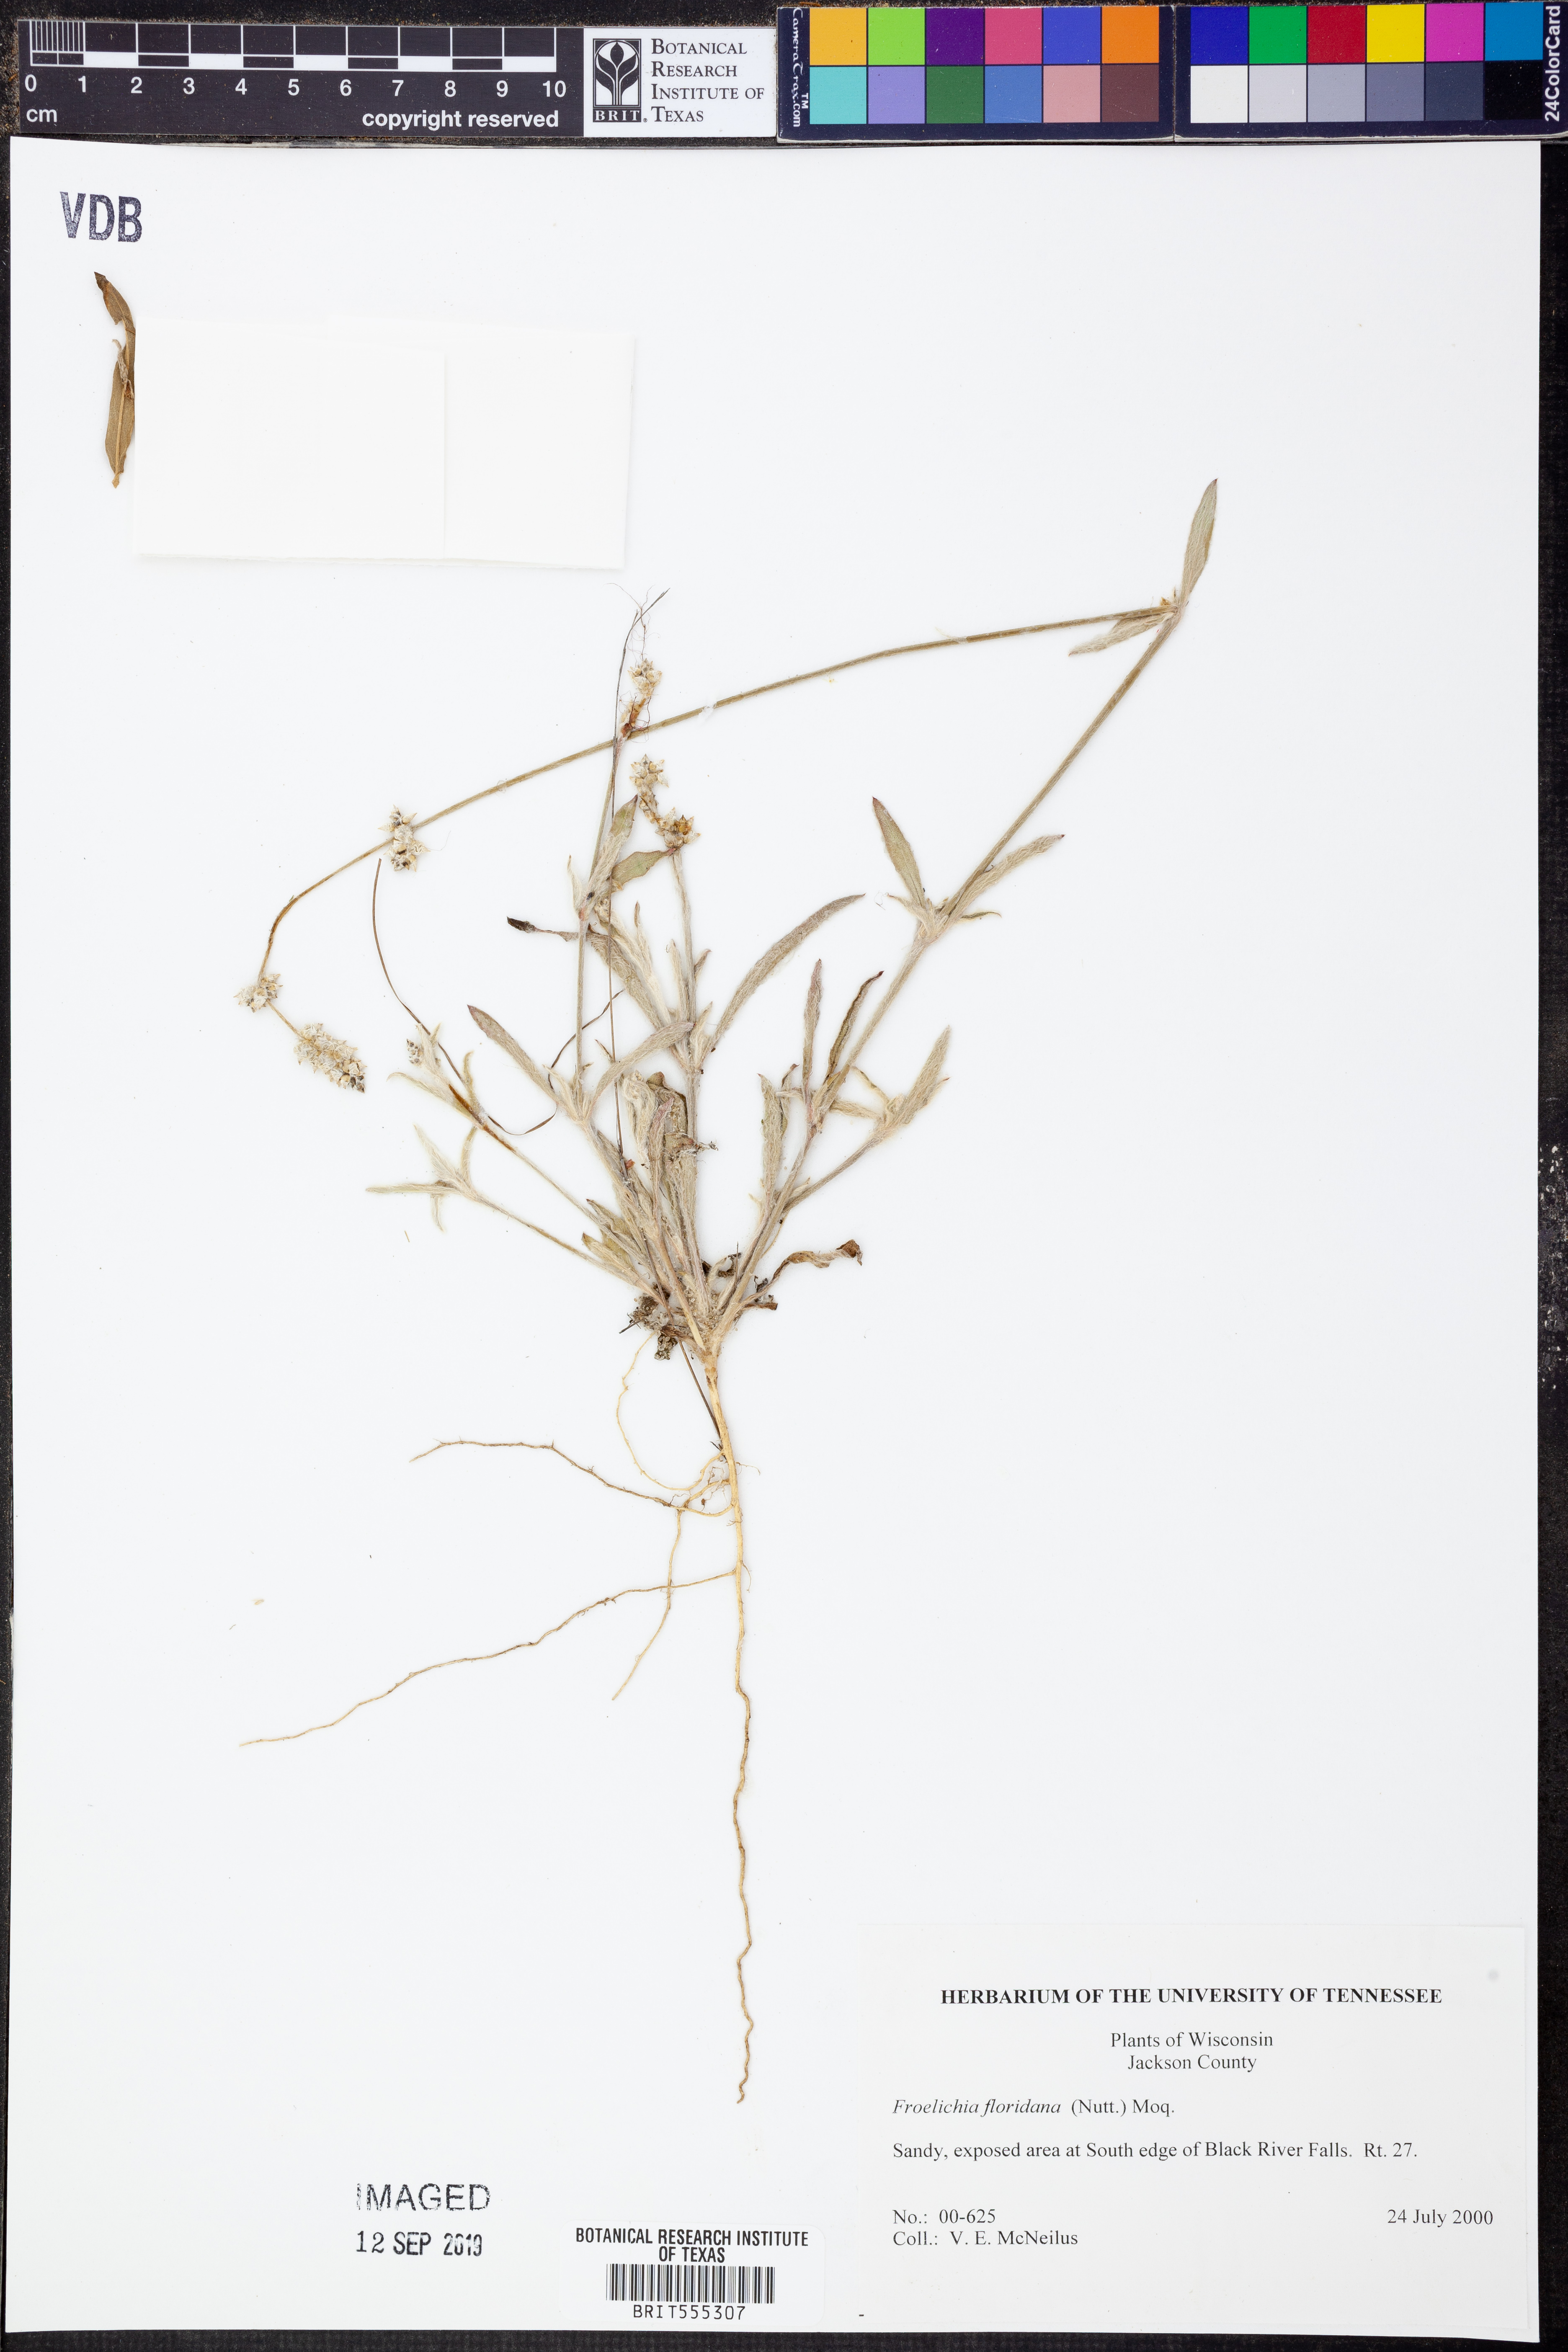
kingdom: Plantae
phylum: Tracheophyta
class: Magnoliopsida
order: Caryophyllales
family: Amaranthaceae
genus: Froelichia
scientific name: Froelichia floridana
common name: Florida snake-cotton
